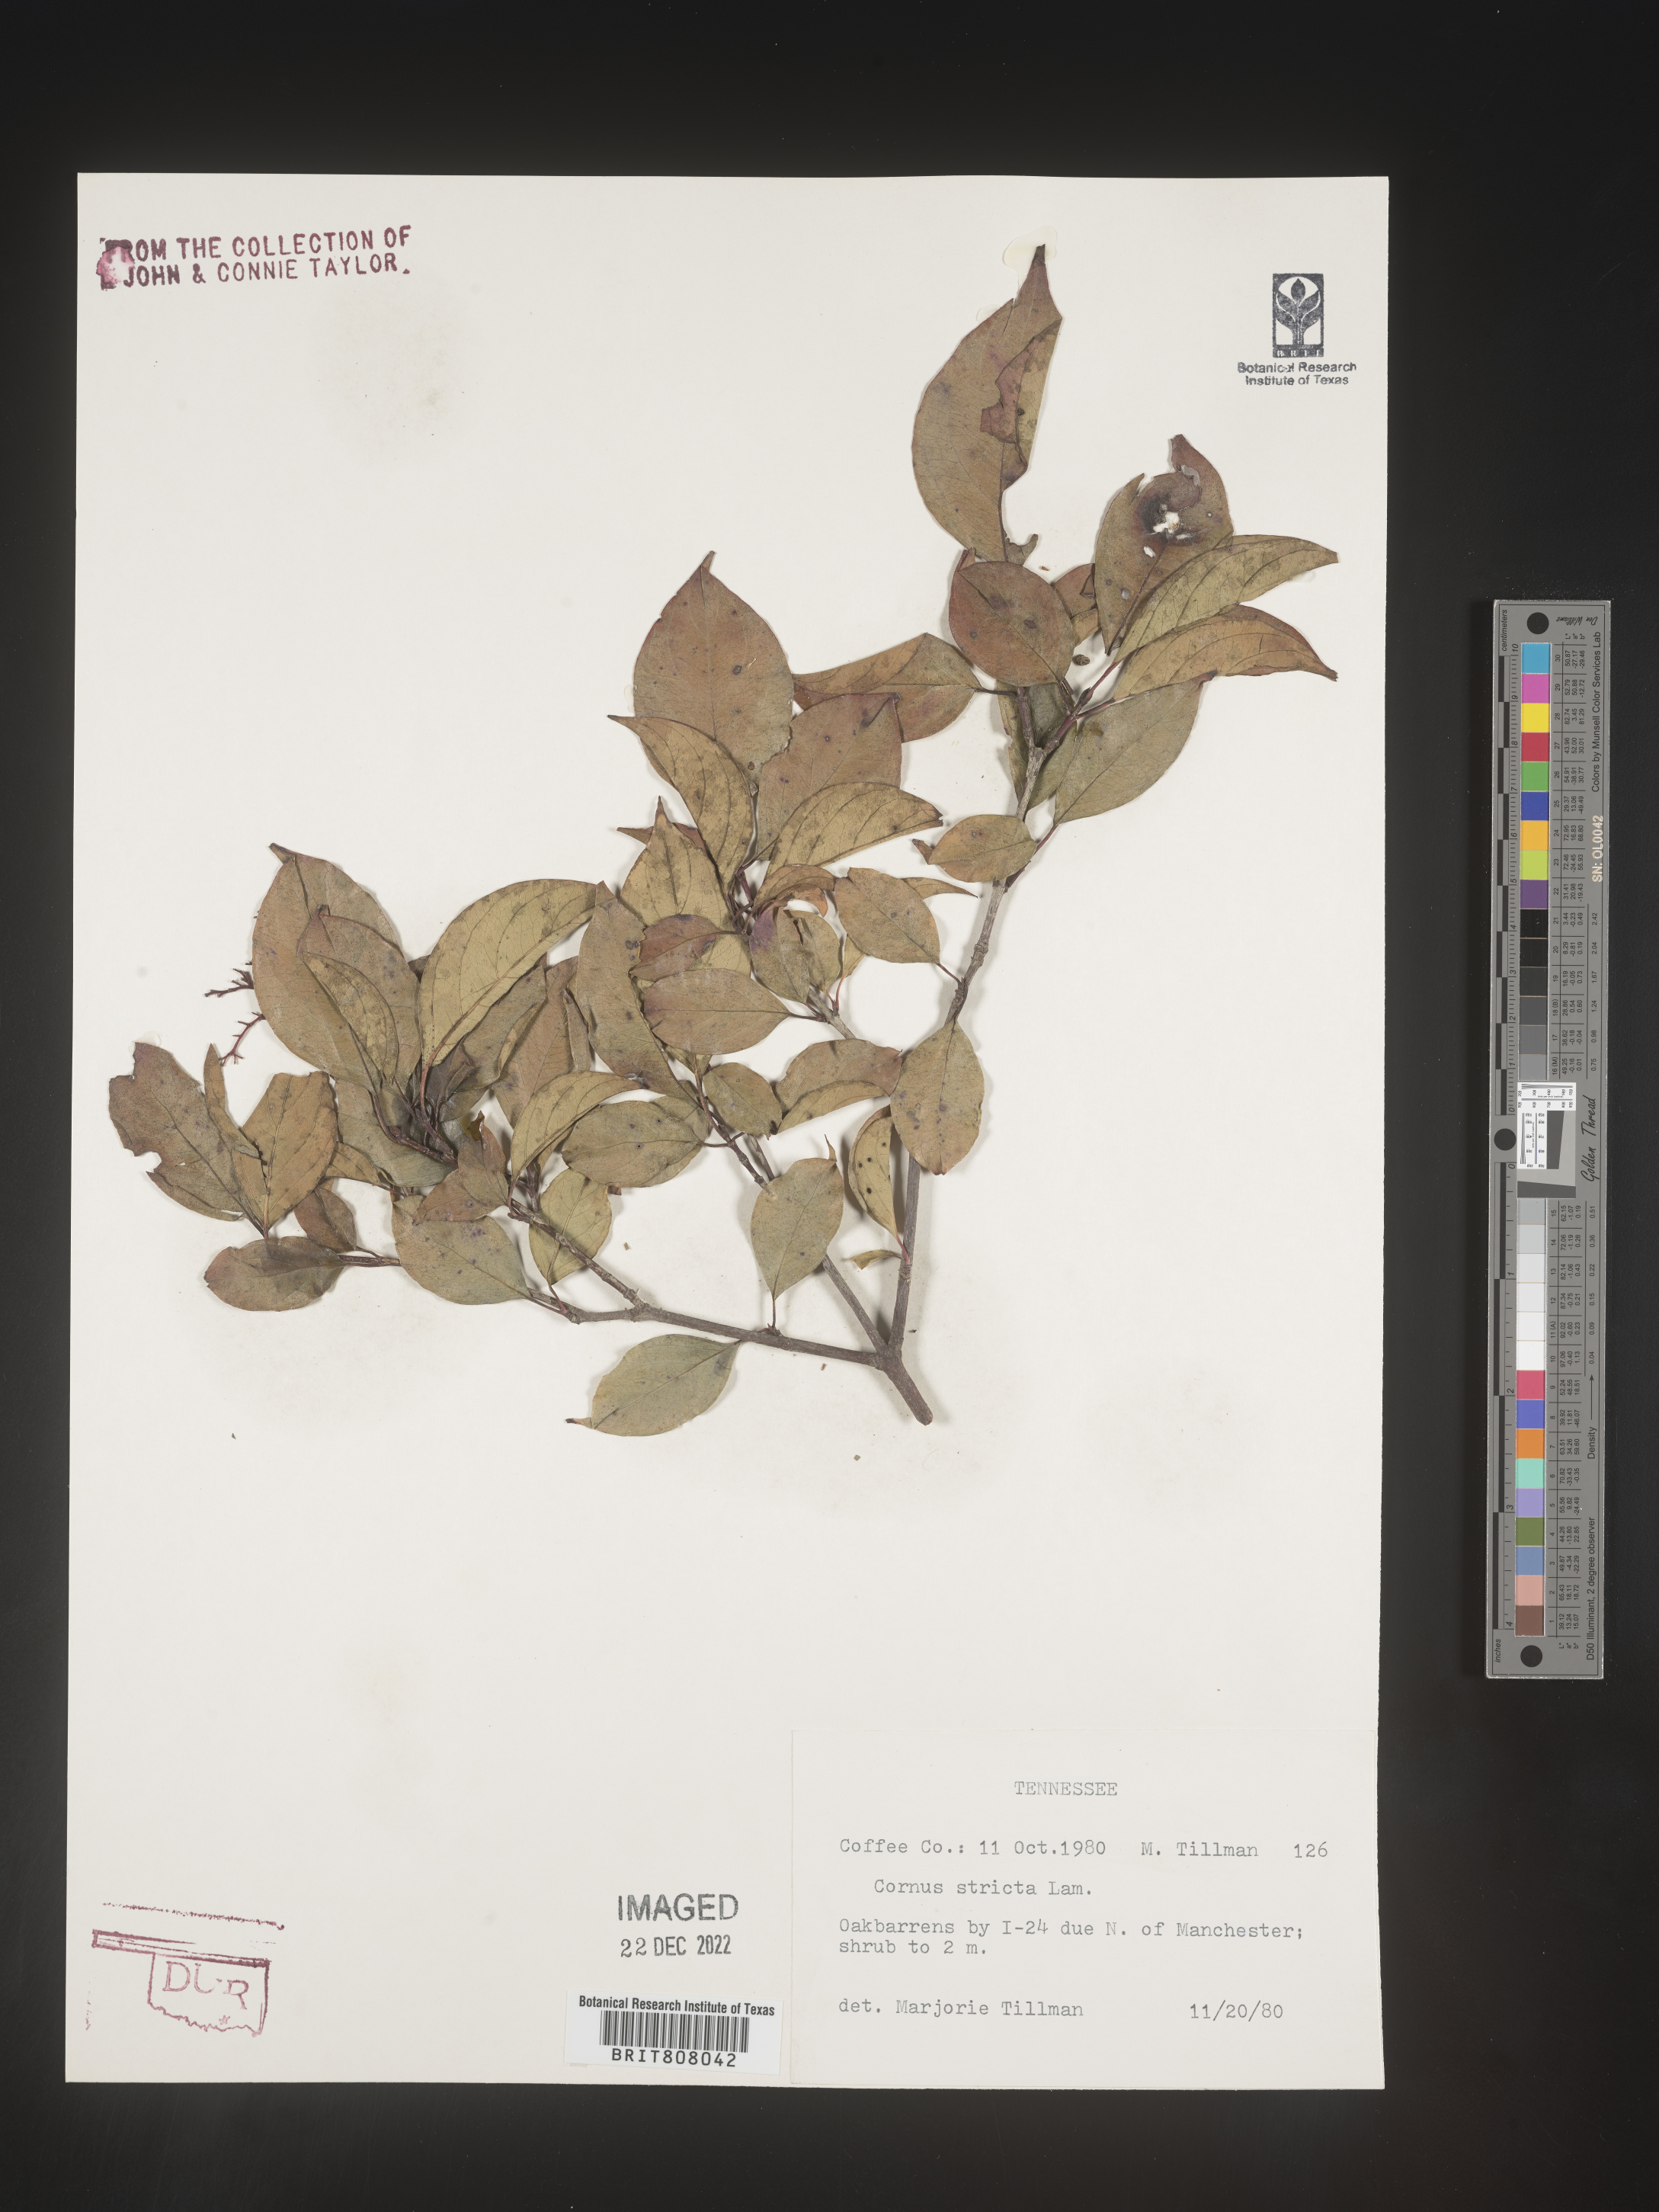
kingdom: Plantae
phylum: Tracheophyta
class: Magnoliopsida
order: Cornales
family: Cornaceae
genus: Cornus
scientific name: Cornus foemina
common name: Swamp dogwood
